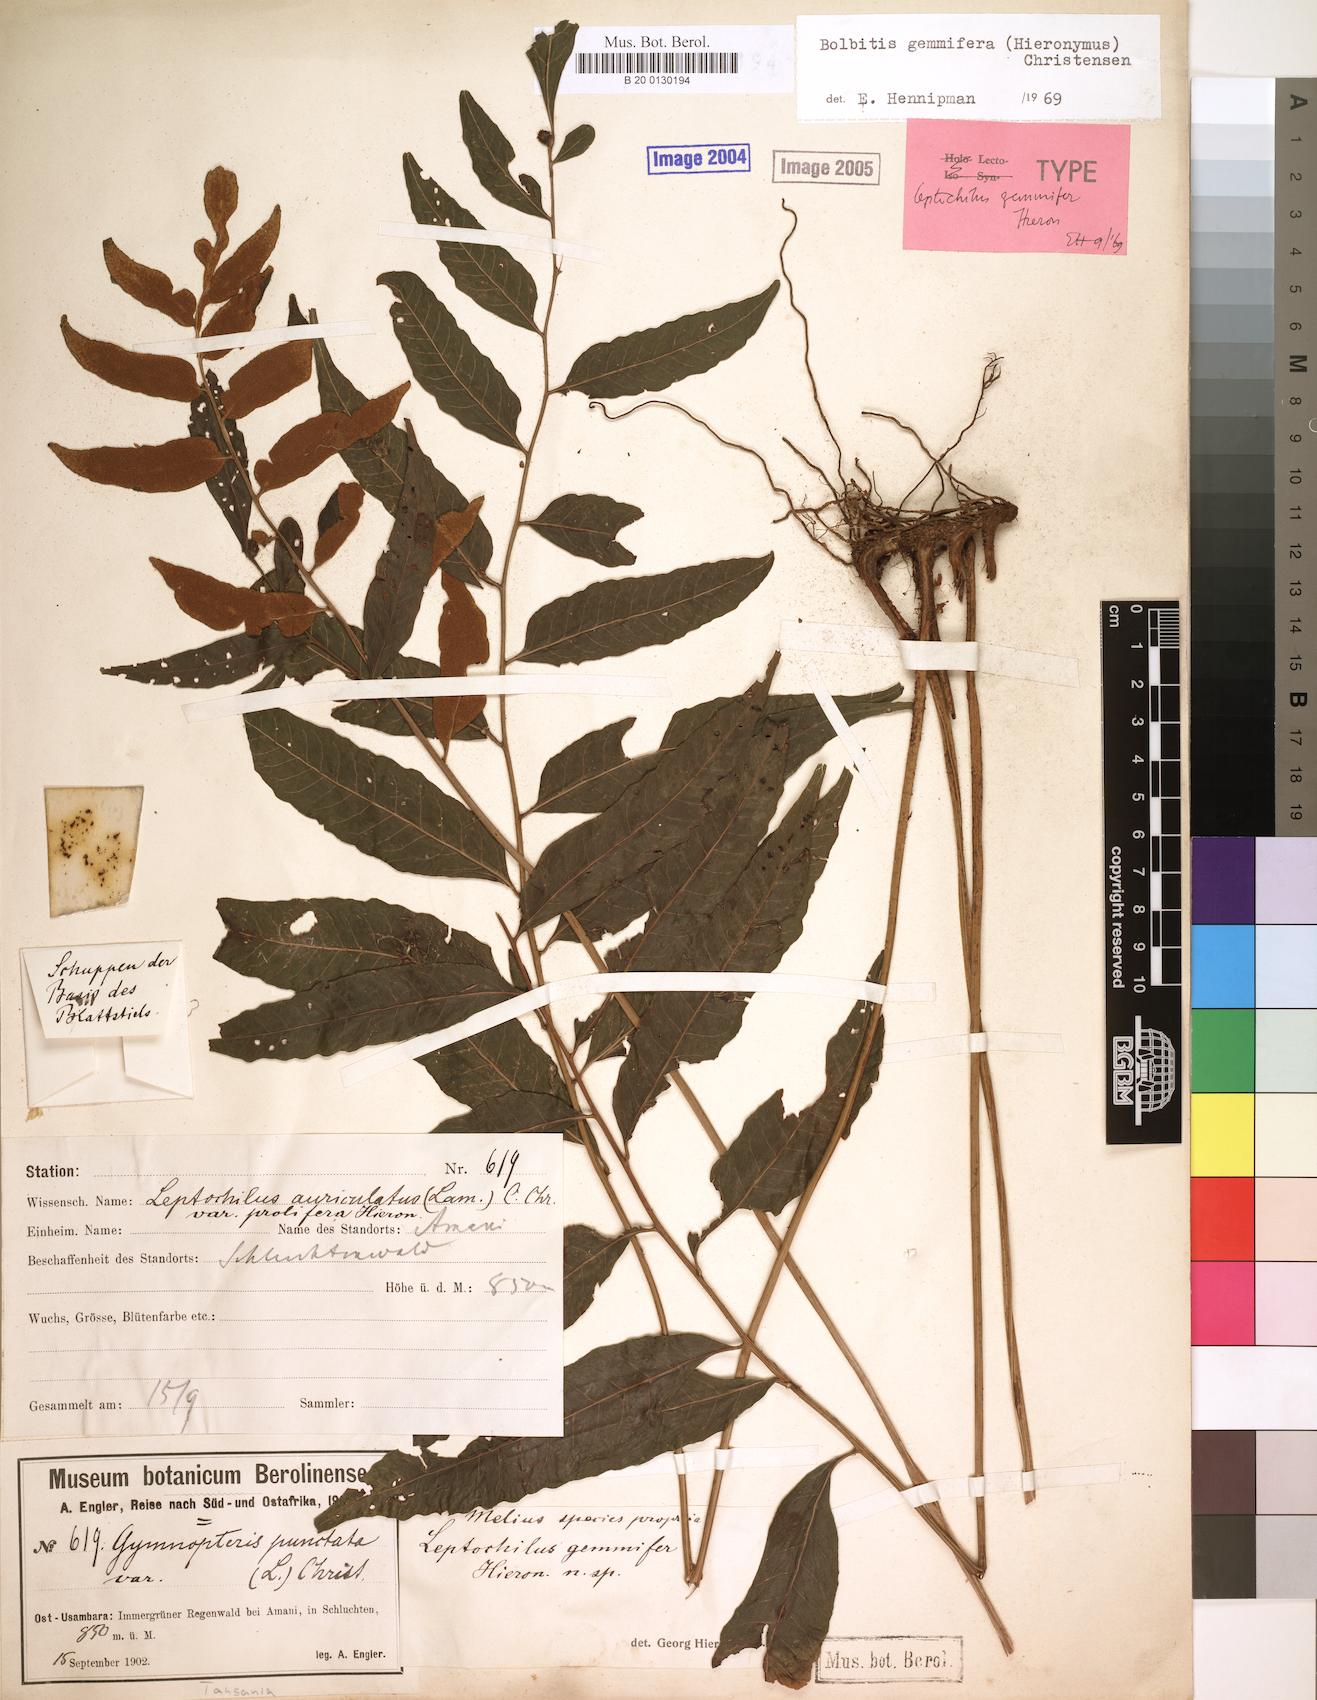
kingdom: Plantae
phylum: Tracheophyta
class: Polypodiopsida
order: Polypodiales
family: Dryopteridaceae
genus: Bolbitis
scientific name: Bolbitis gemmifer
